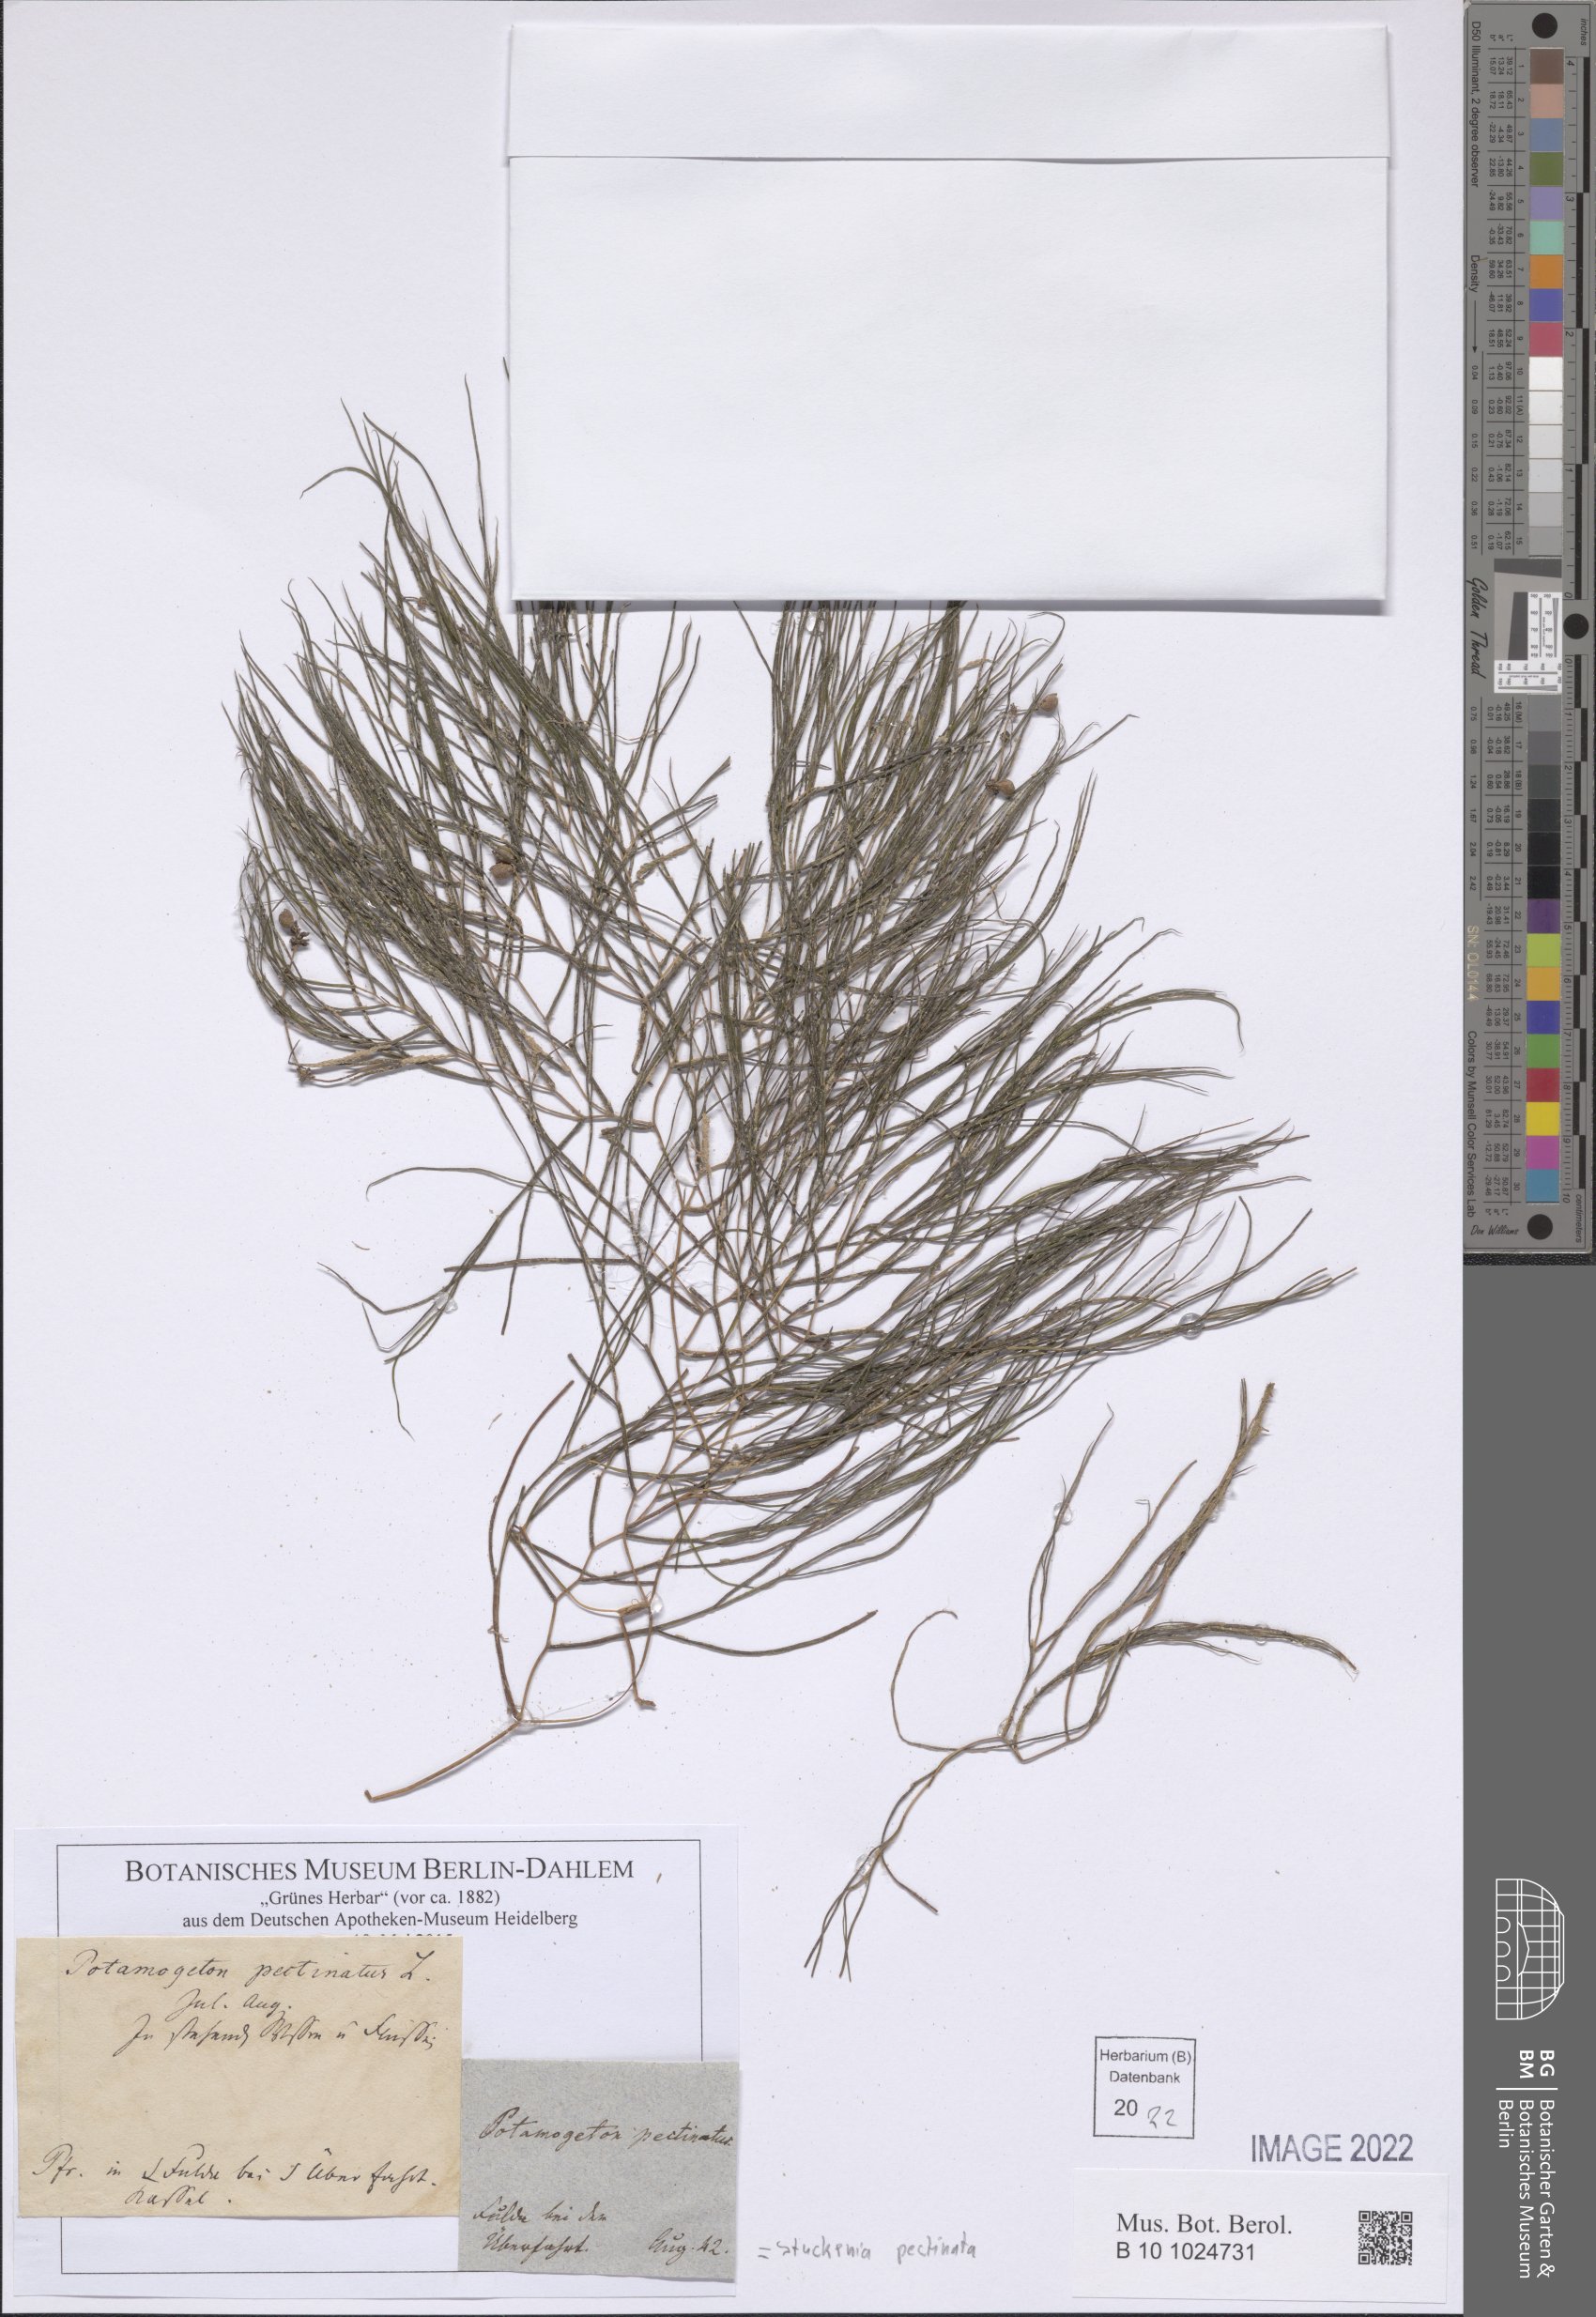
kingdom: Plantae
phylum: Tracheophyta
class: Liliopsida
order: Alismatales
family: Potamogetonaceae
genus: Stuckenia
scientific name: Stuckenia pectinata
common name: Sago pondweed
